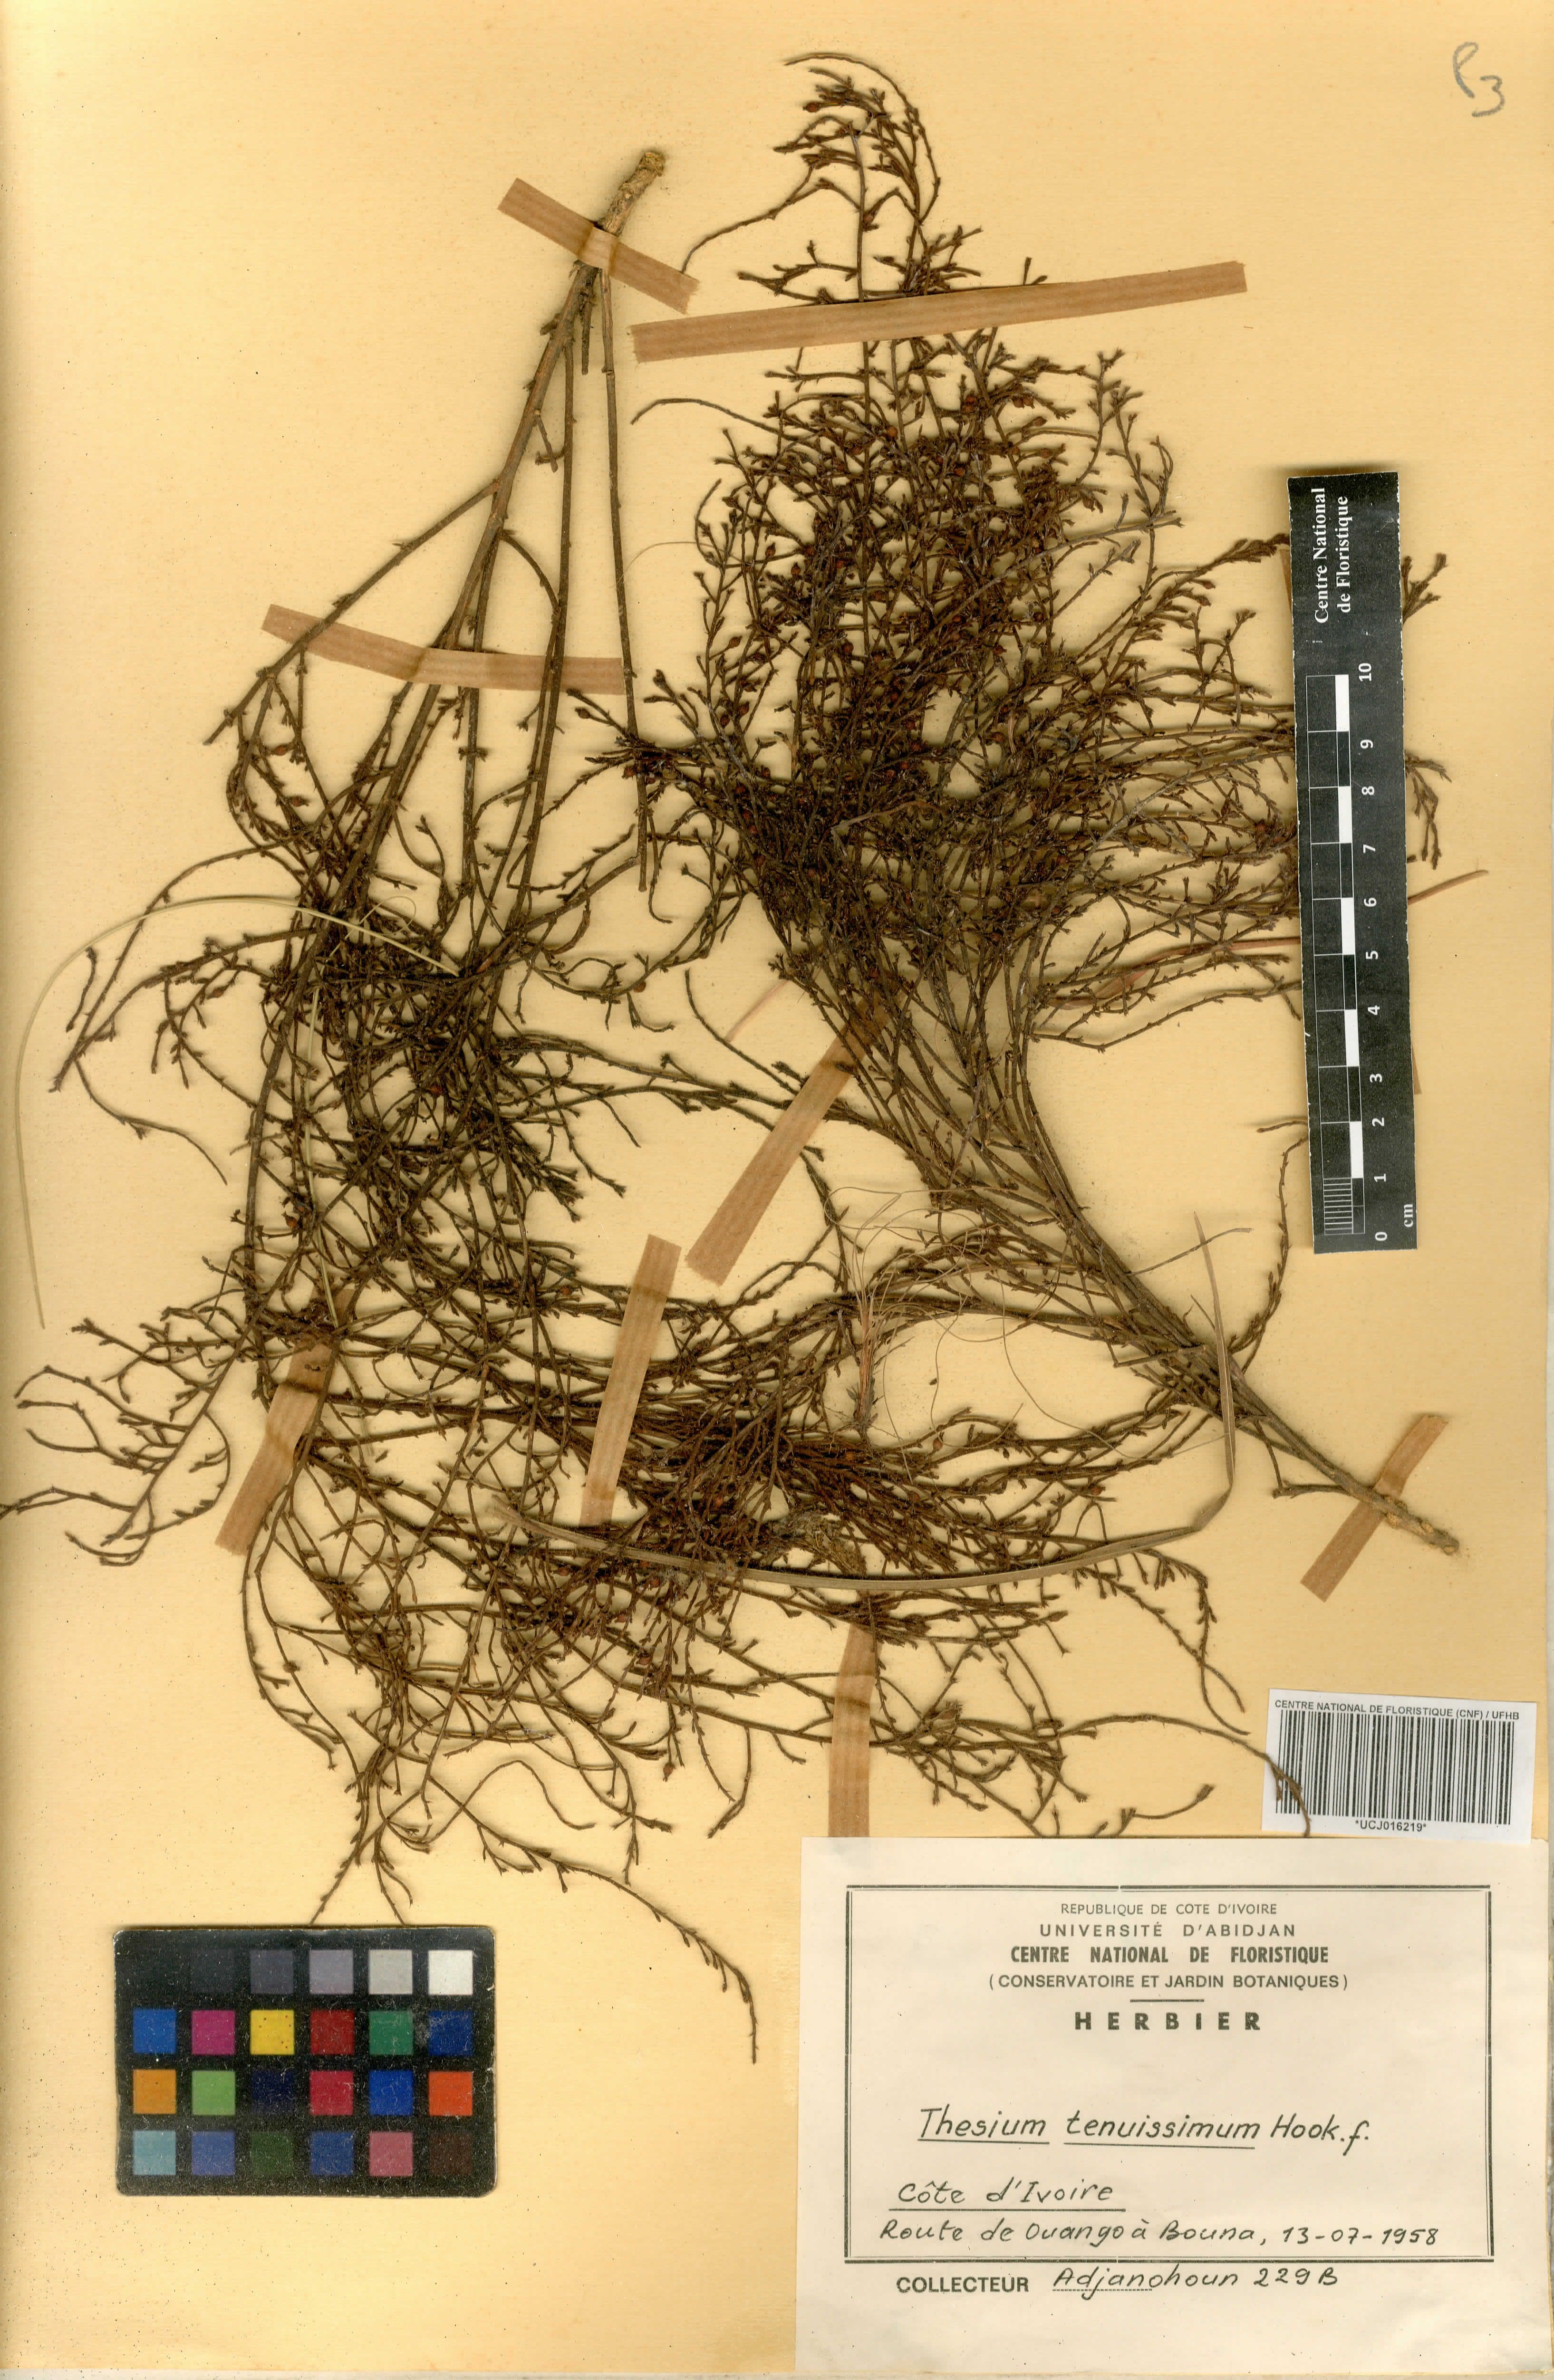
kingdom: Plantae
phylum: Tracheophyta
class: Magnoliopsida
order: Santalales
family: Thesiaceae
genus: Thesium
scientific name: Thesium tenuissimum
